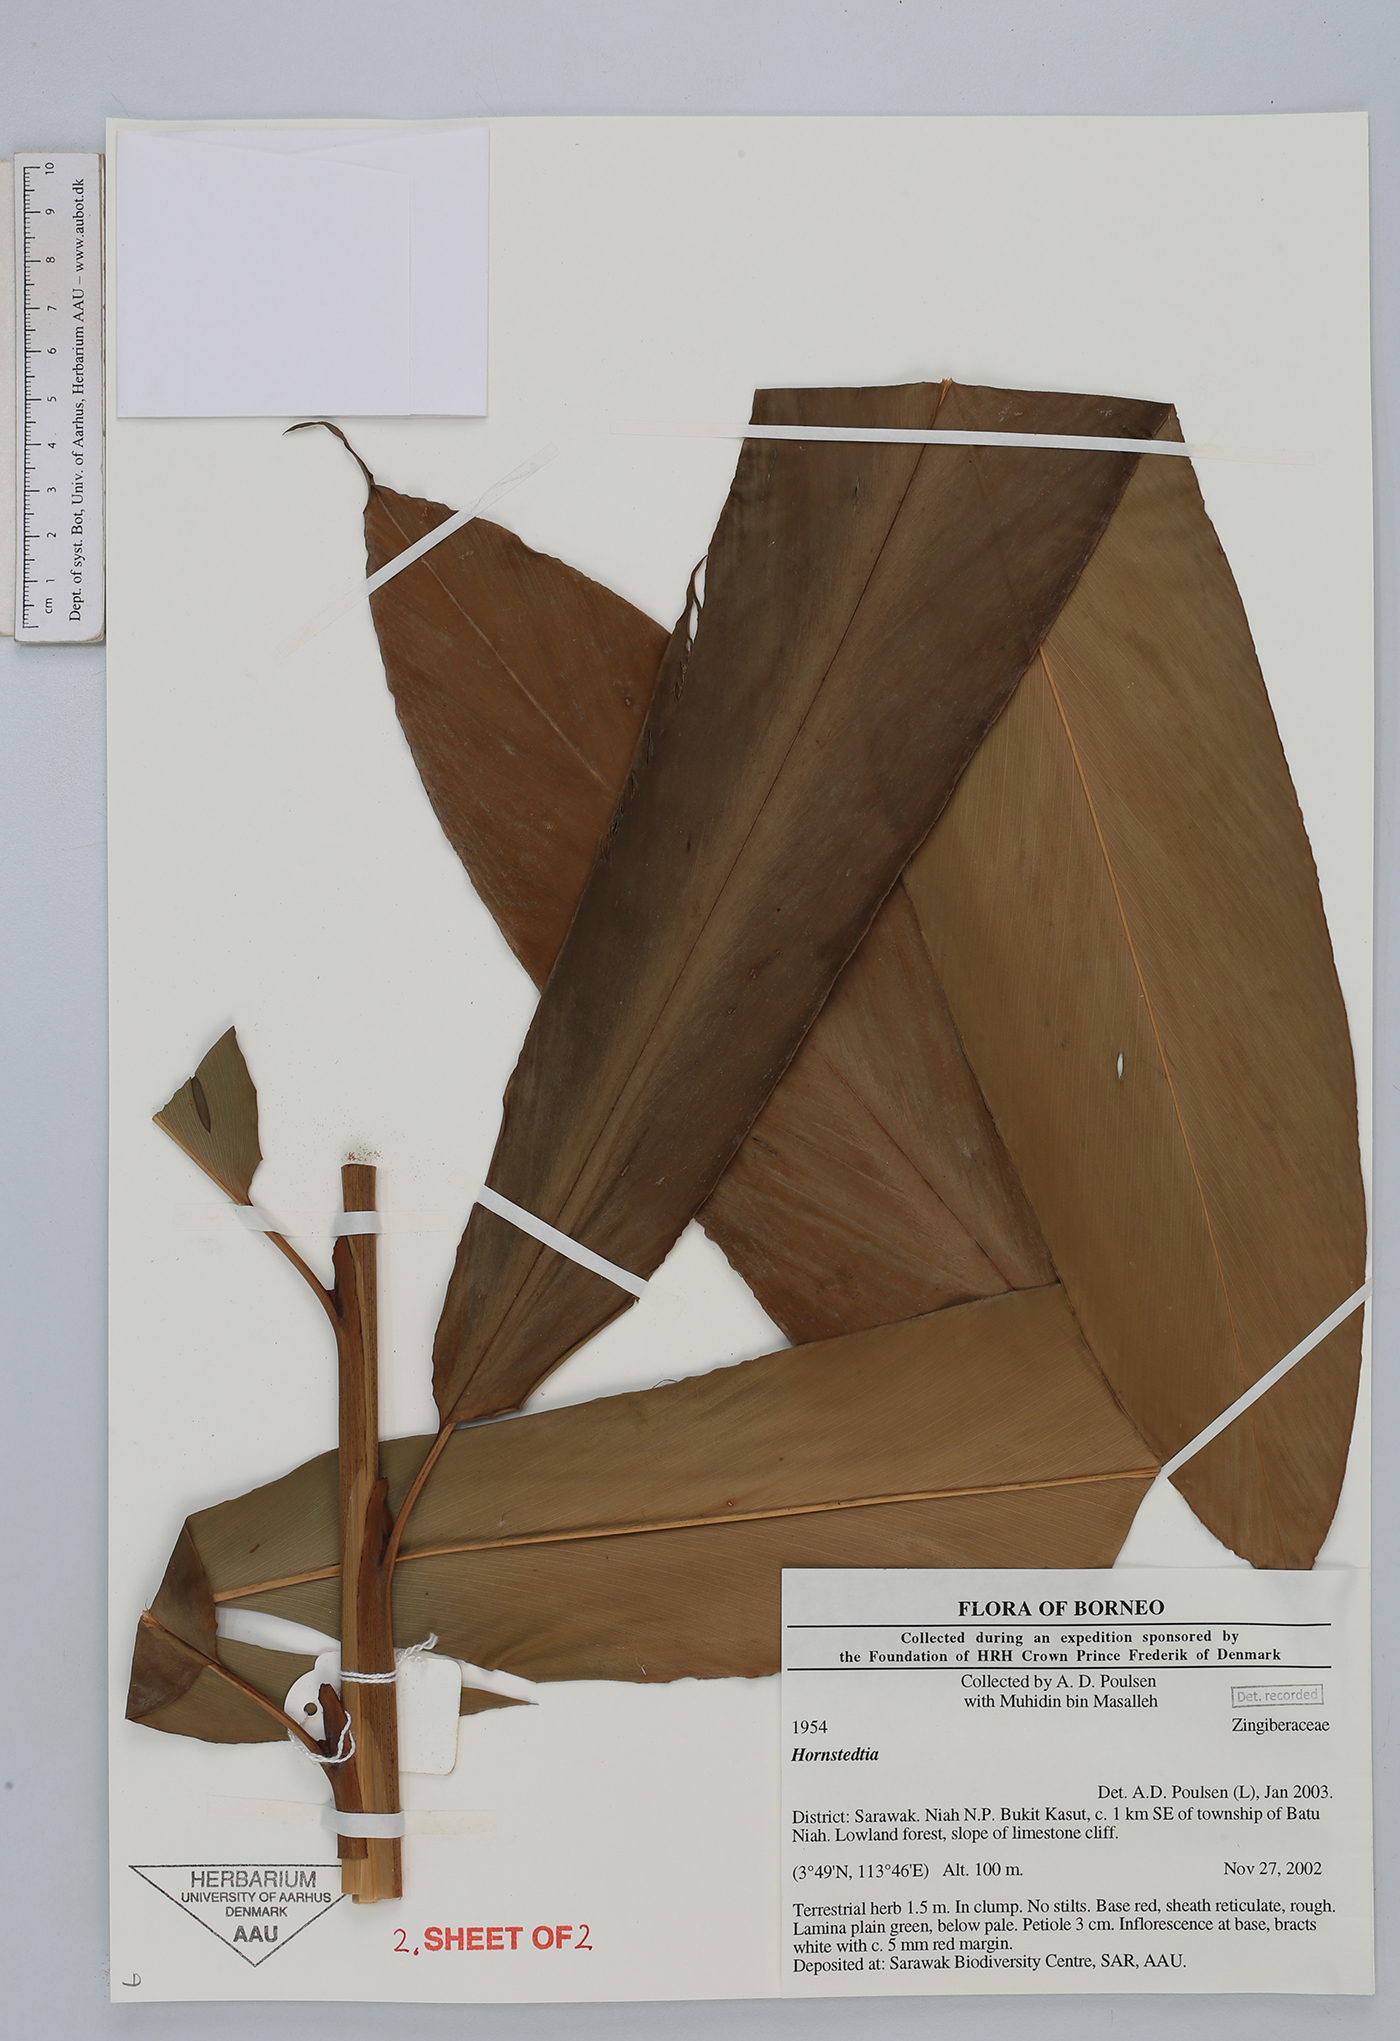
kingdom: Plantae
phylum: Tracheophyta
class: Liliopsida
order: Zingiberales
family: Zingiberaceae
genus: Hornstedtia
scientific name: Hornstedtia
